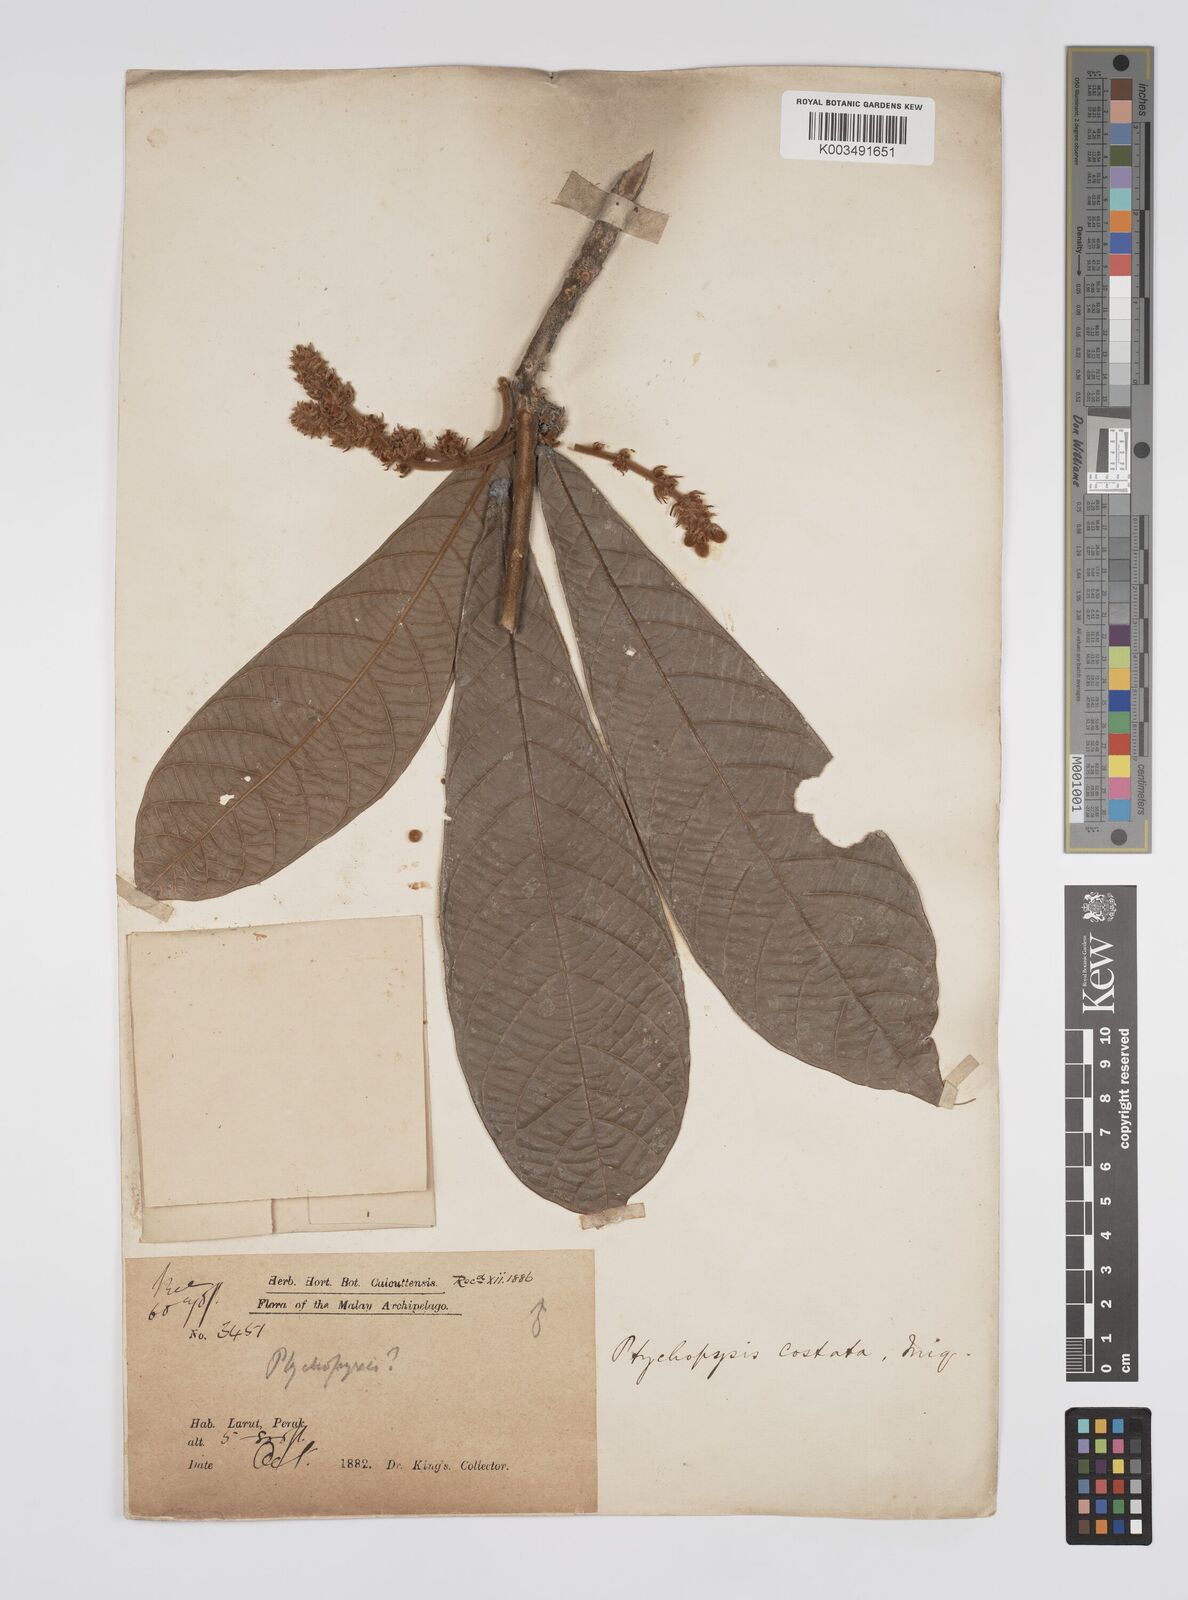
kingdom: Plantae
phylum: Tracheophyta
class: Magnoliopsida
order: Malpighiales
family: Euphorbiaceae
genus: Ptychopyxis
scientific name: Ptychopyxis costata
